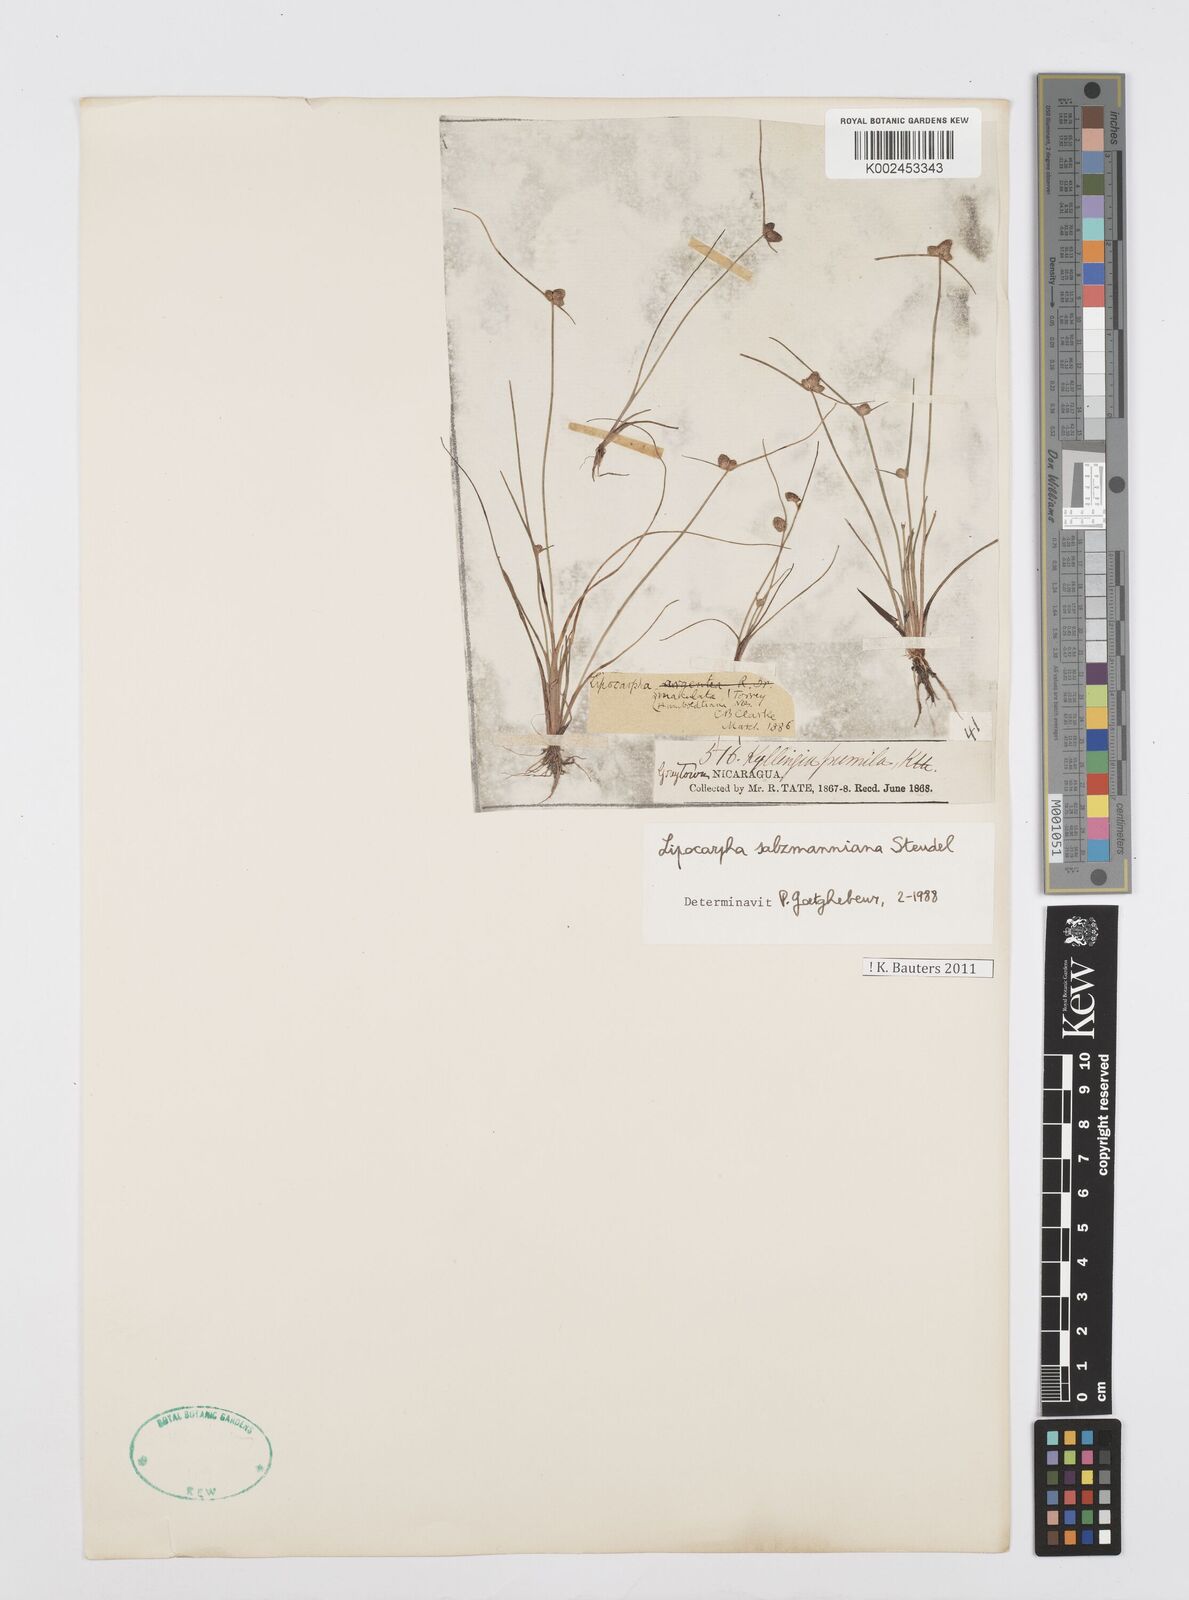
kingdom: Plantae
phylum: Tracheophyta
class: Liliopsida
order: Poales
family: Cyperaceae
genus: Cyperus
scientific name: Cyperus salzmannianus
